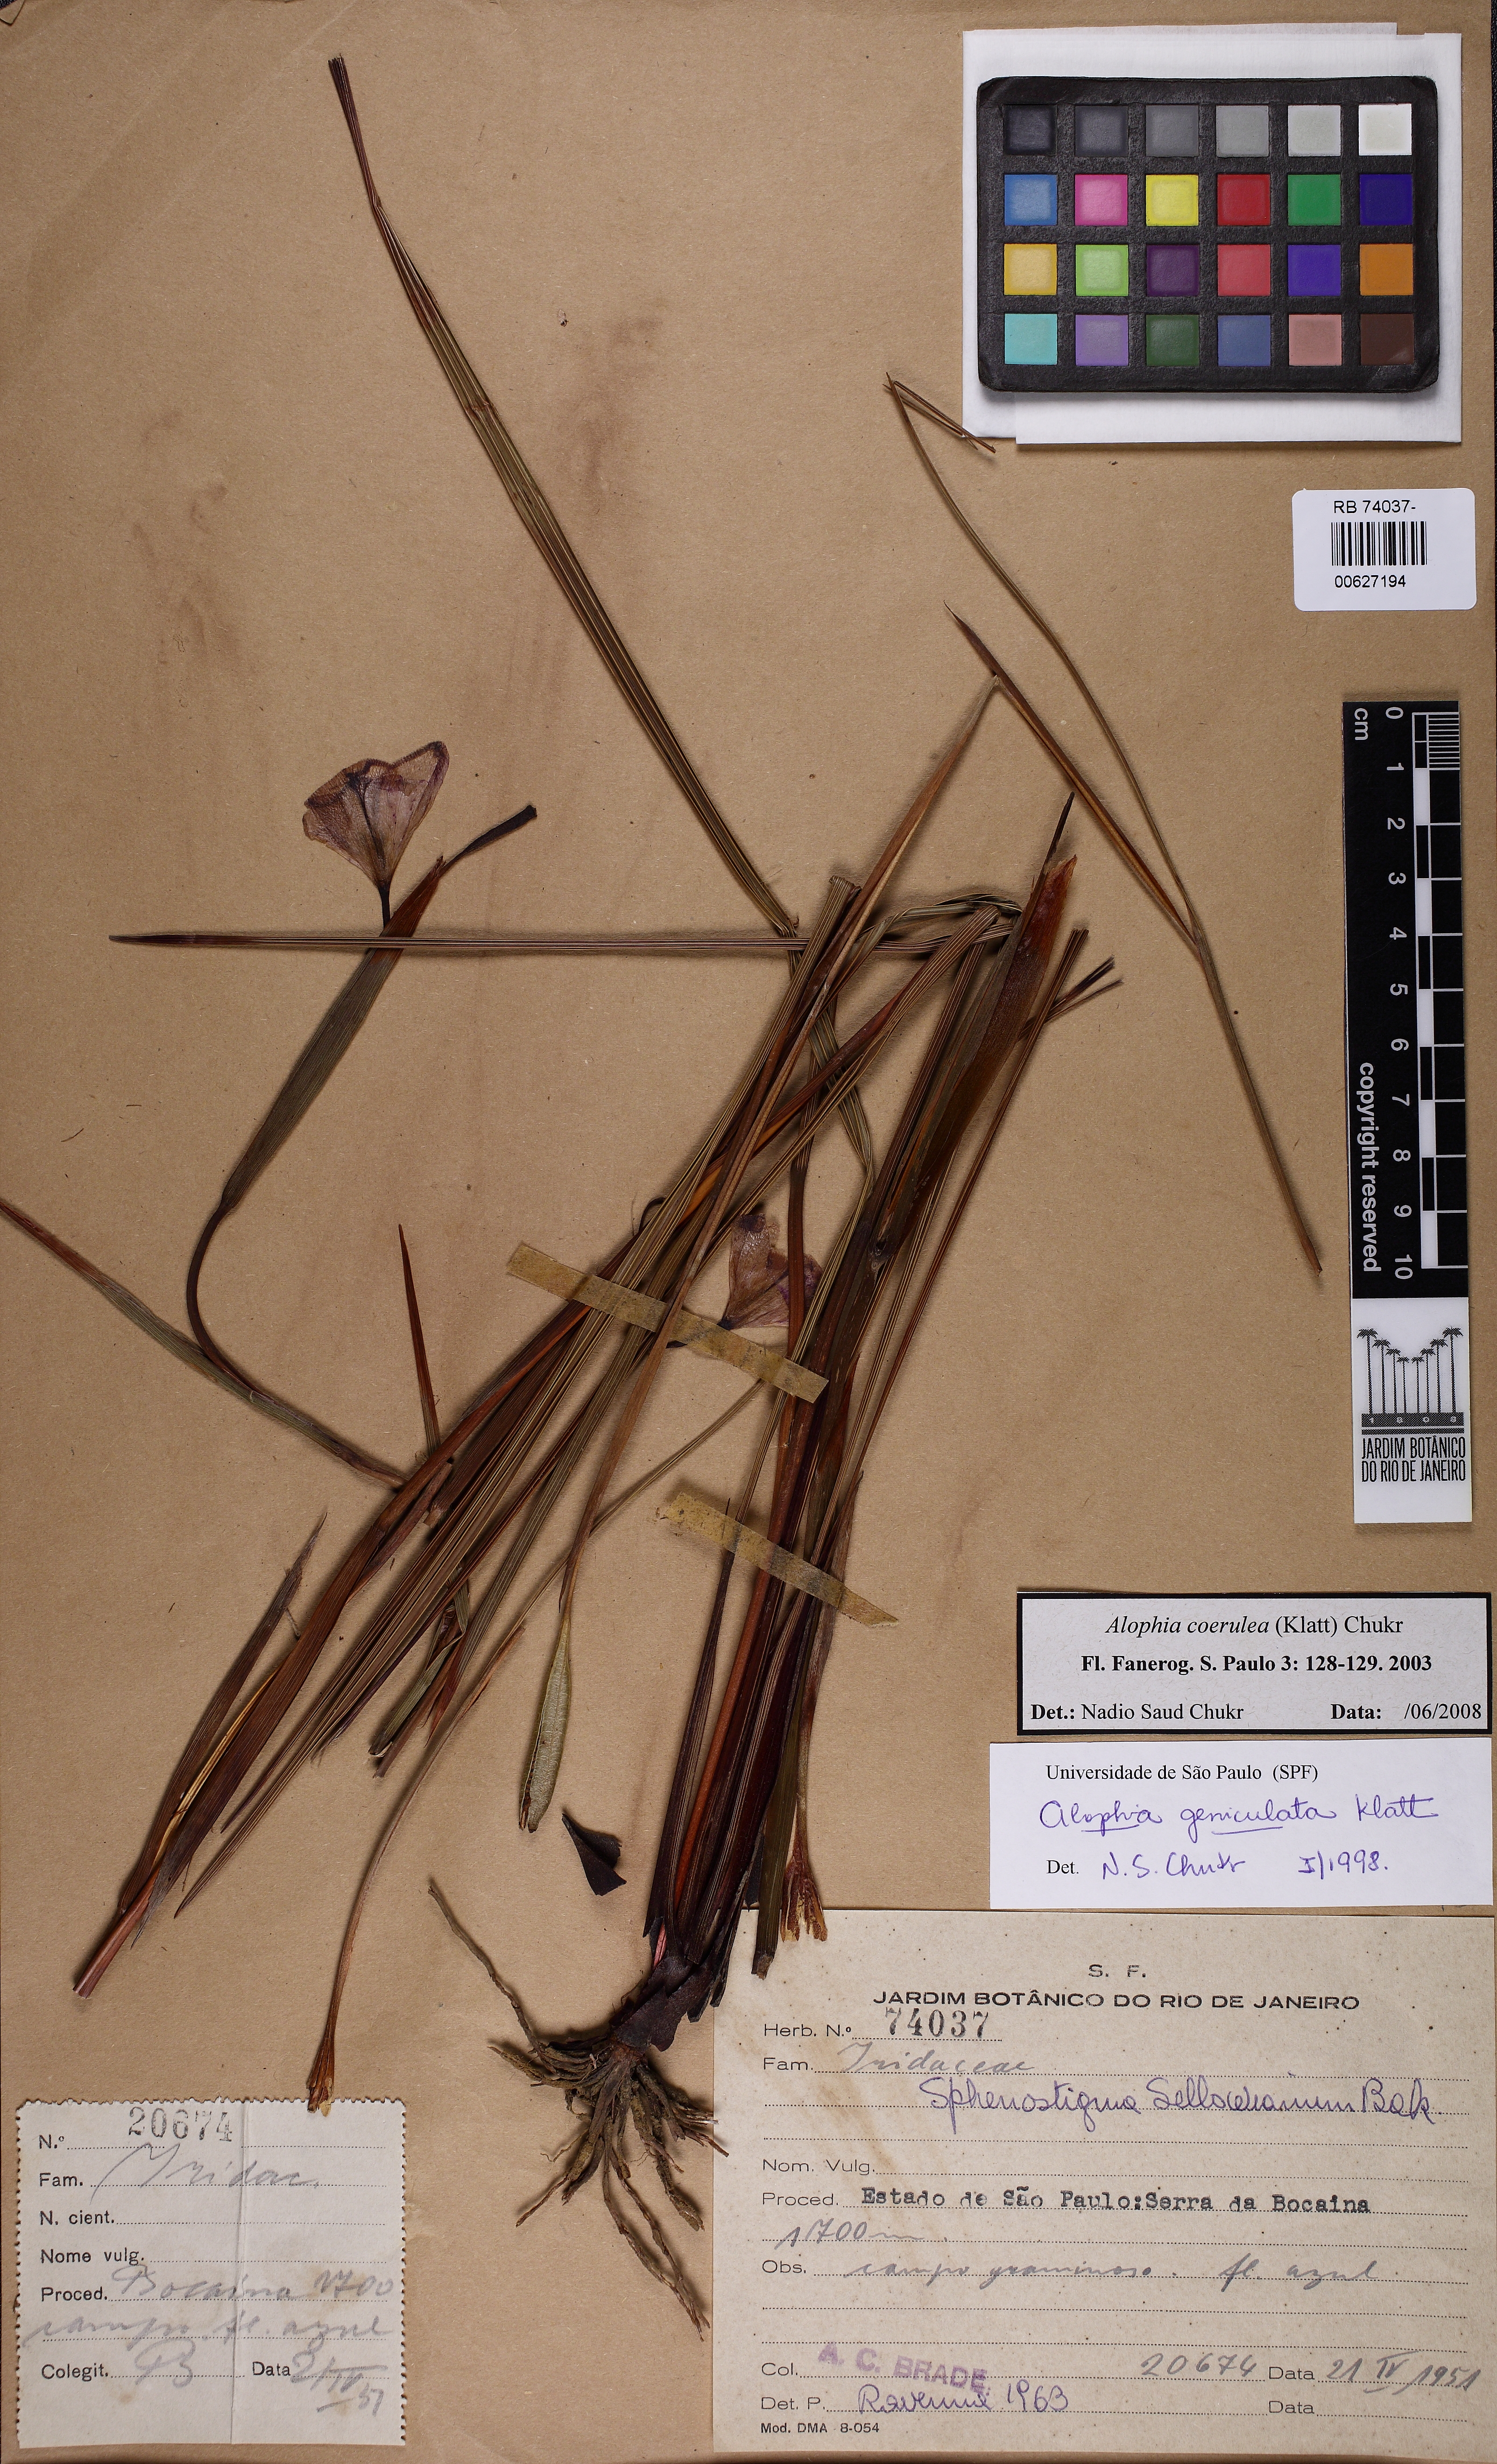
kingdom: Plantae
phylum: Tracheophyta
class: Liliopsida
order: Asparagales
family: Iridaceae
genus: Gelasine
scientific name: Gelasine coerulea
